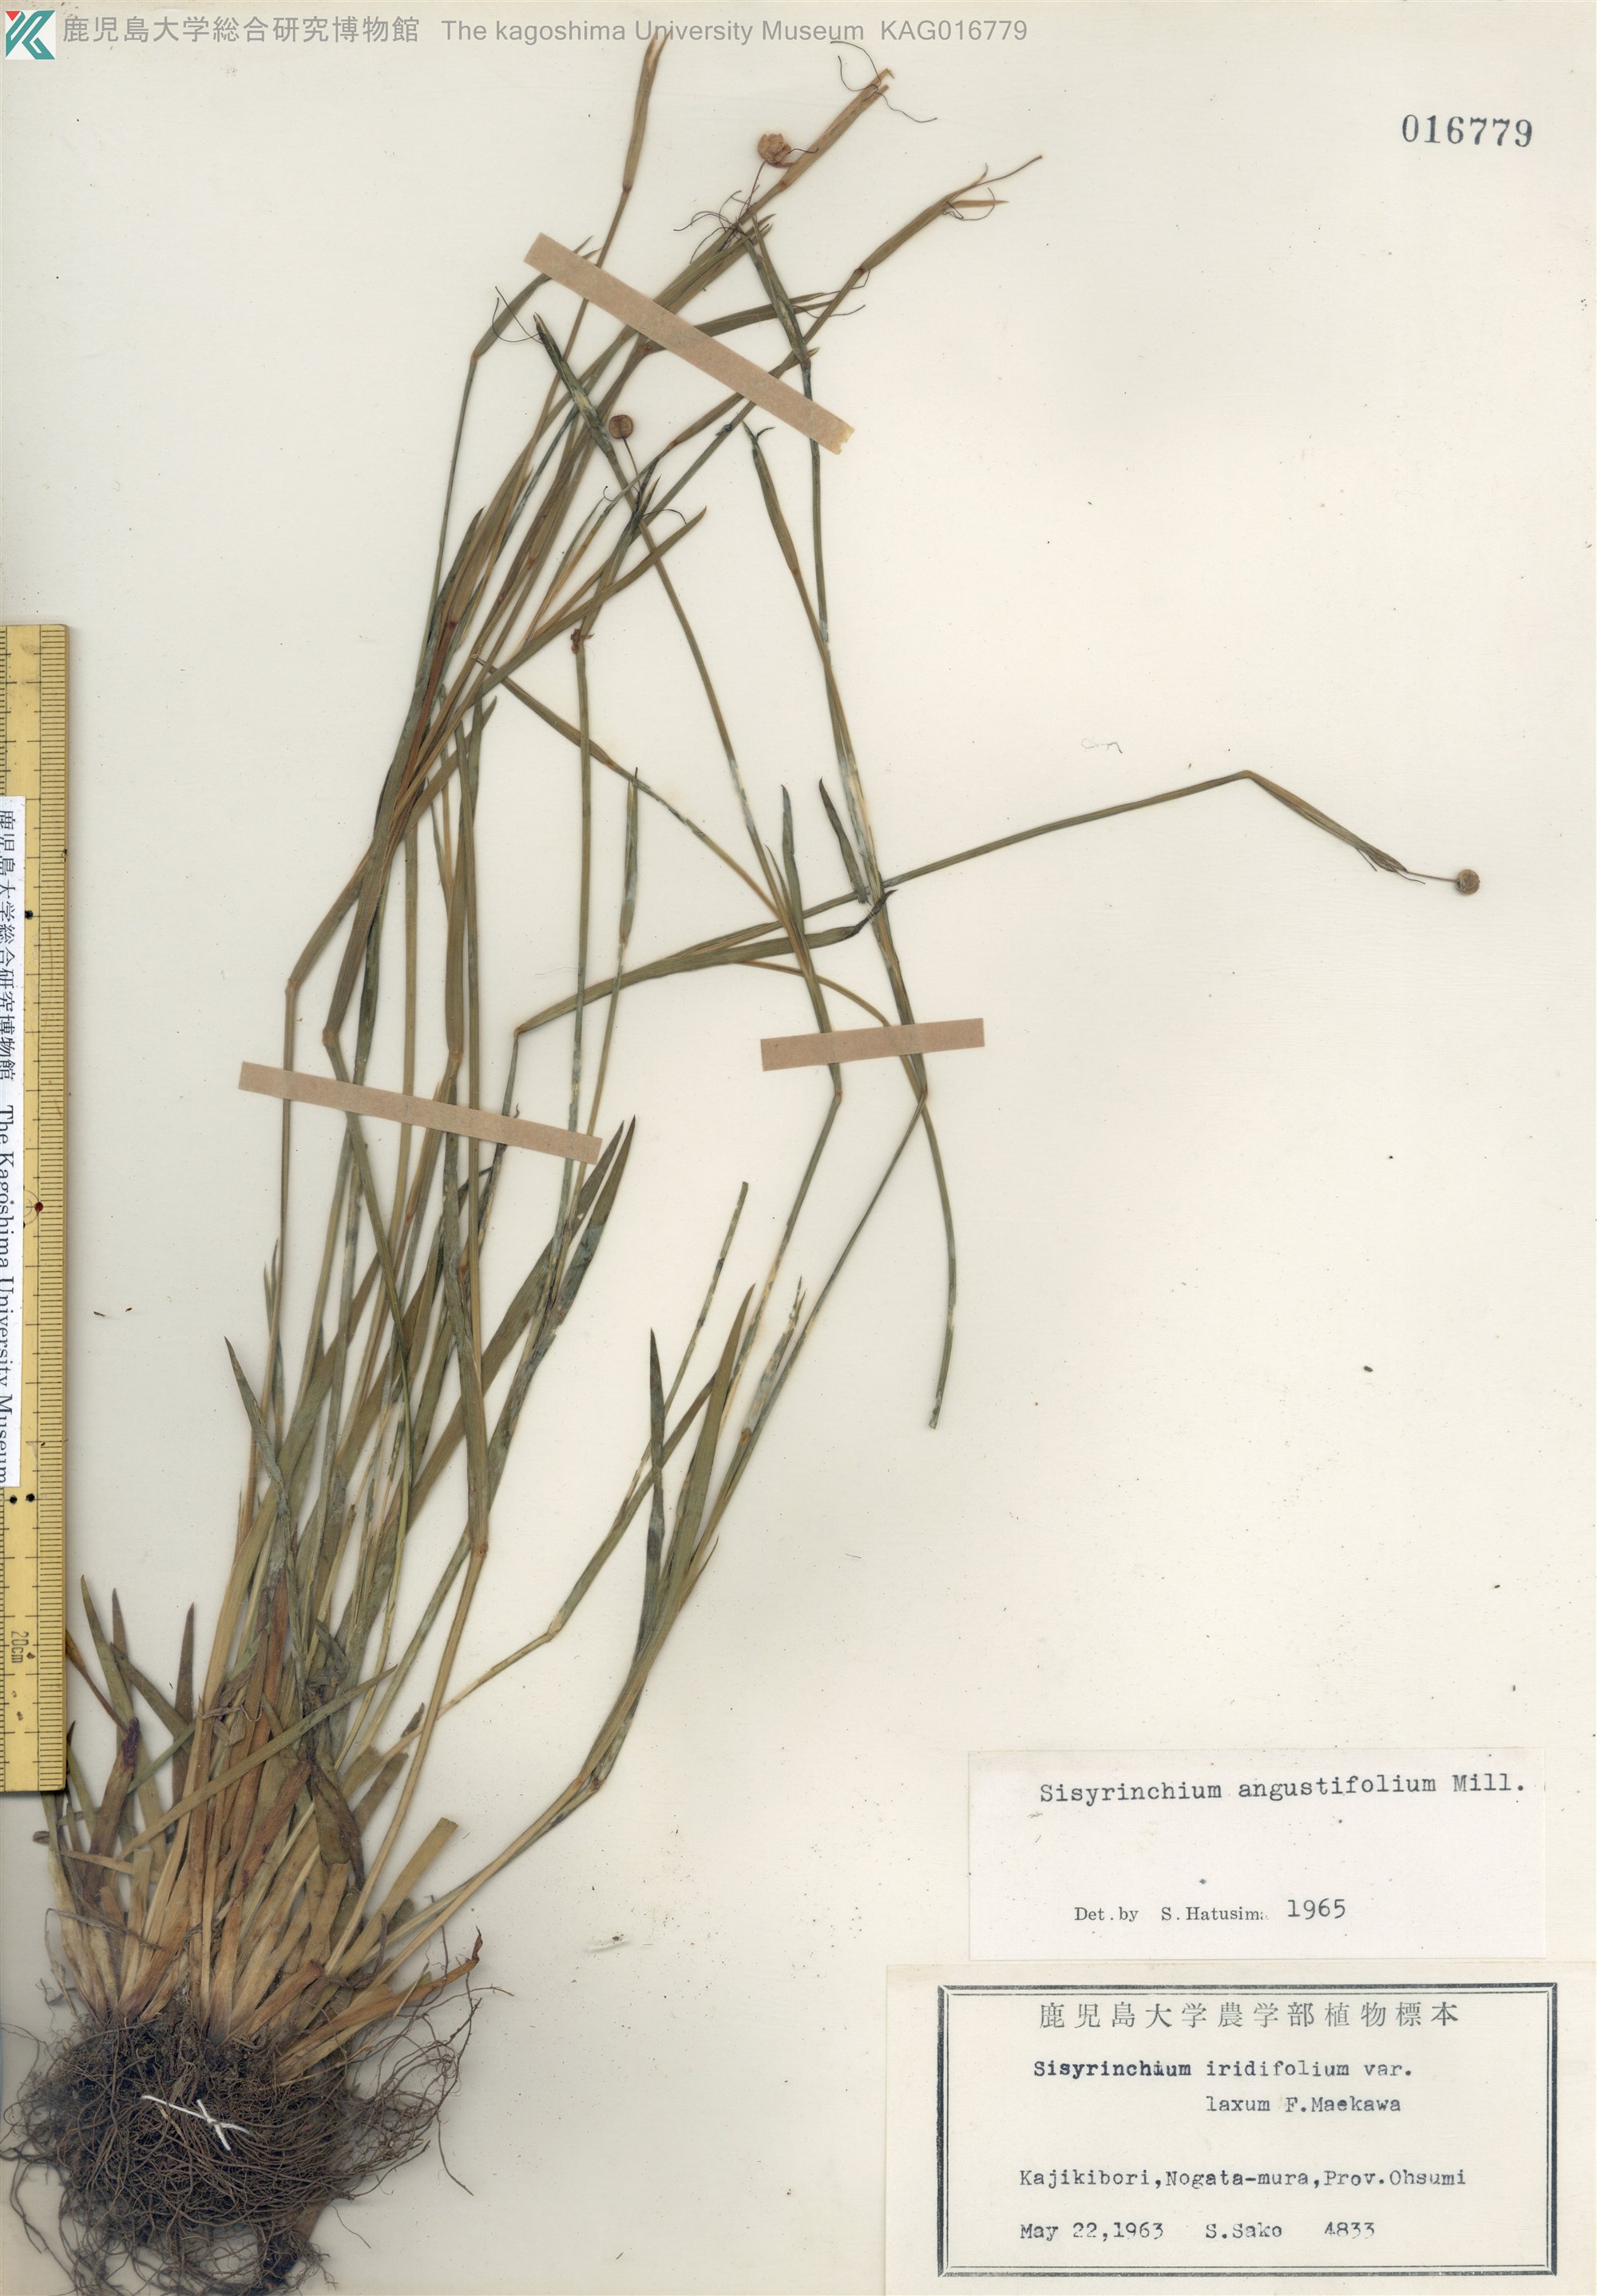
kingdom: Plantae
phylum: Tracheophyta
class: Liliopsida
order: Asparagales
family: Iridaceae
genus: Sisyrinchium
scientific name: Sisyrinchium micranthum
